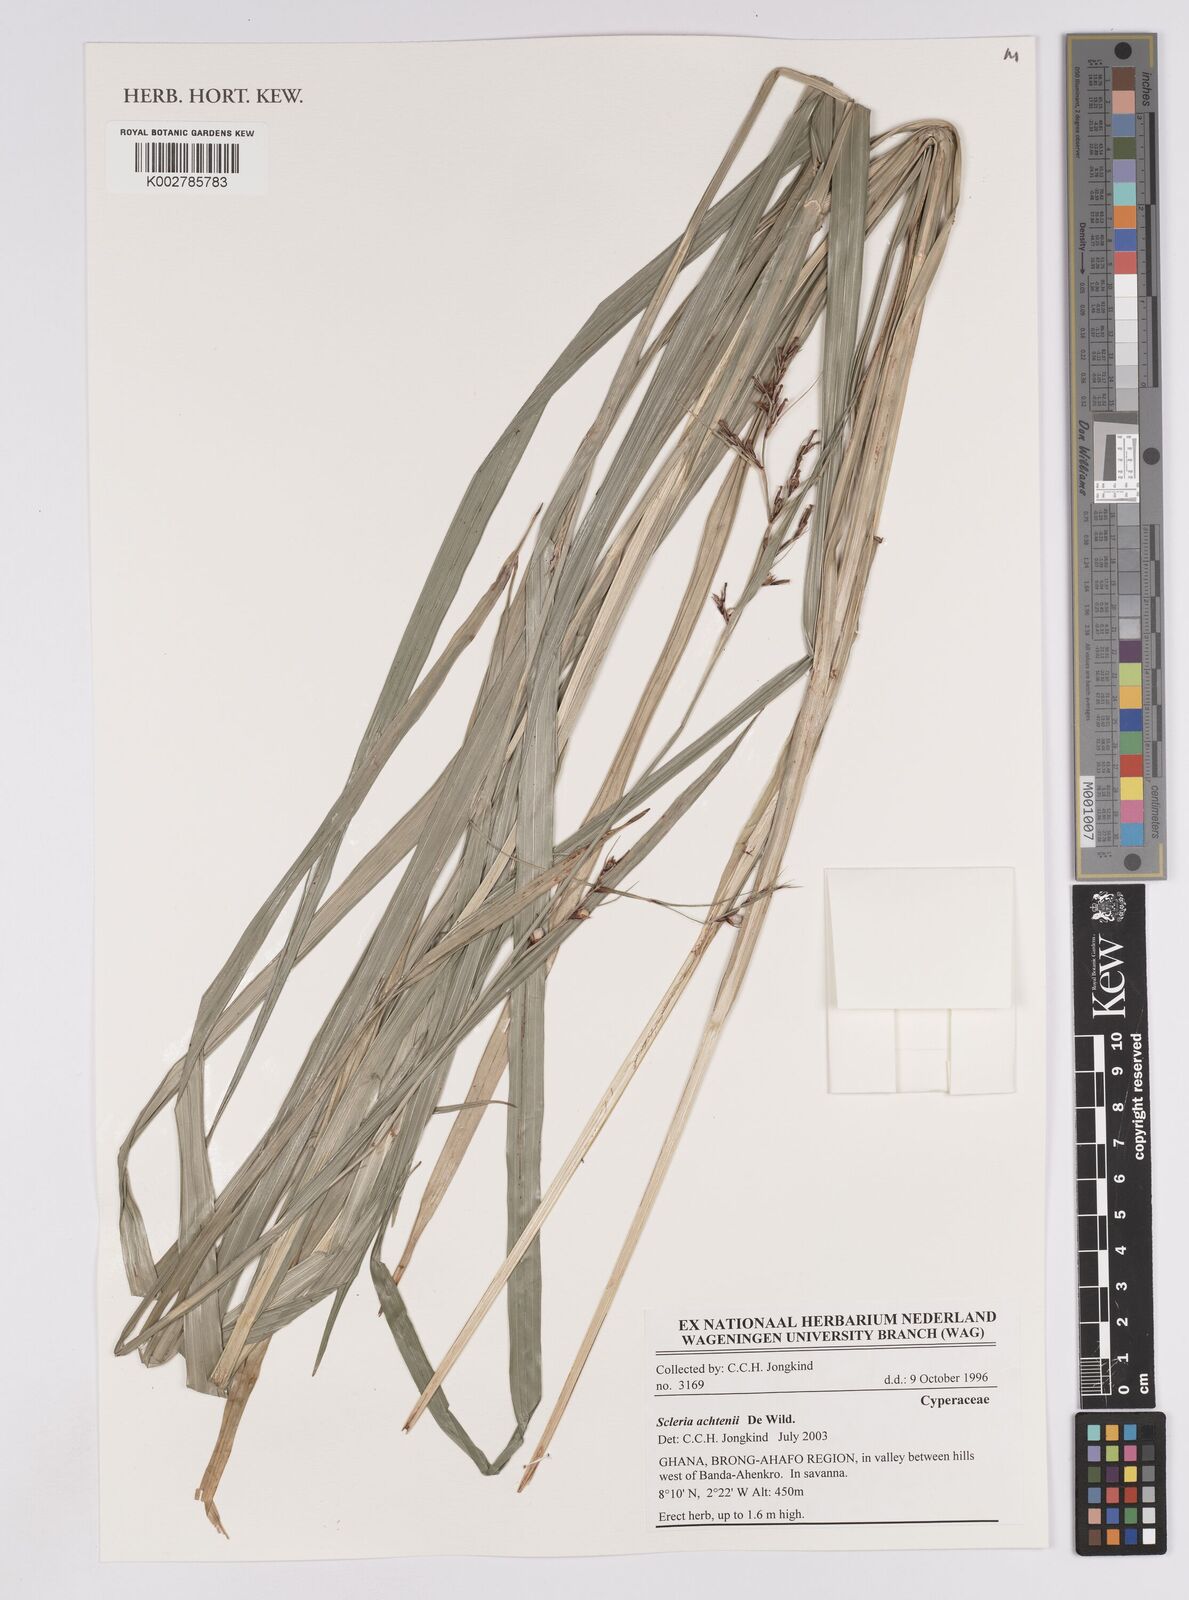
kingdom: Plantae
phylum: Tracheophyta
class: Liliopsida
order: Poales
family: Cyperaceae
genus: Scleria
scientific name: Scleria achtenii
